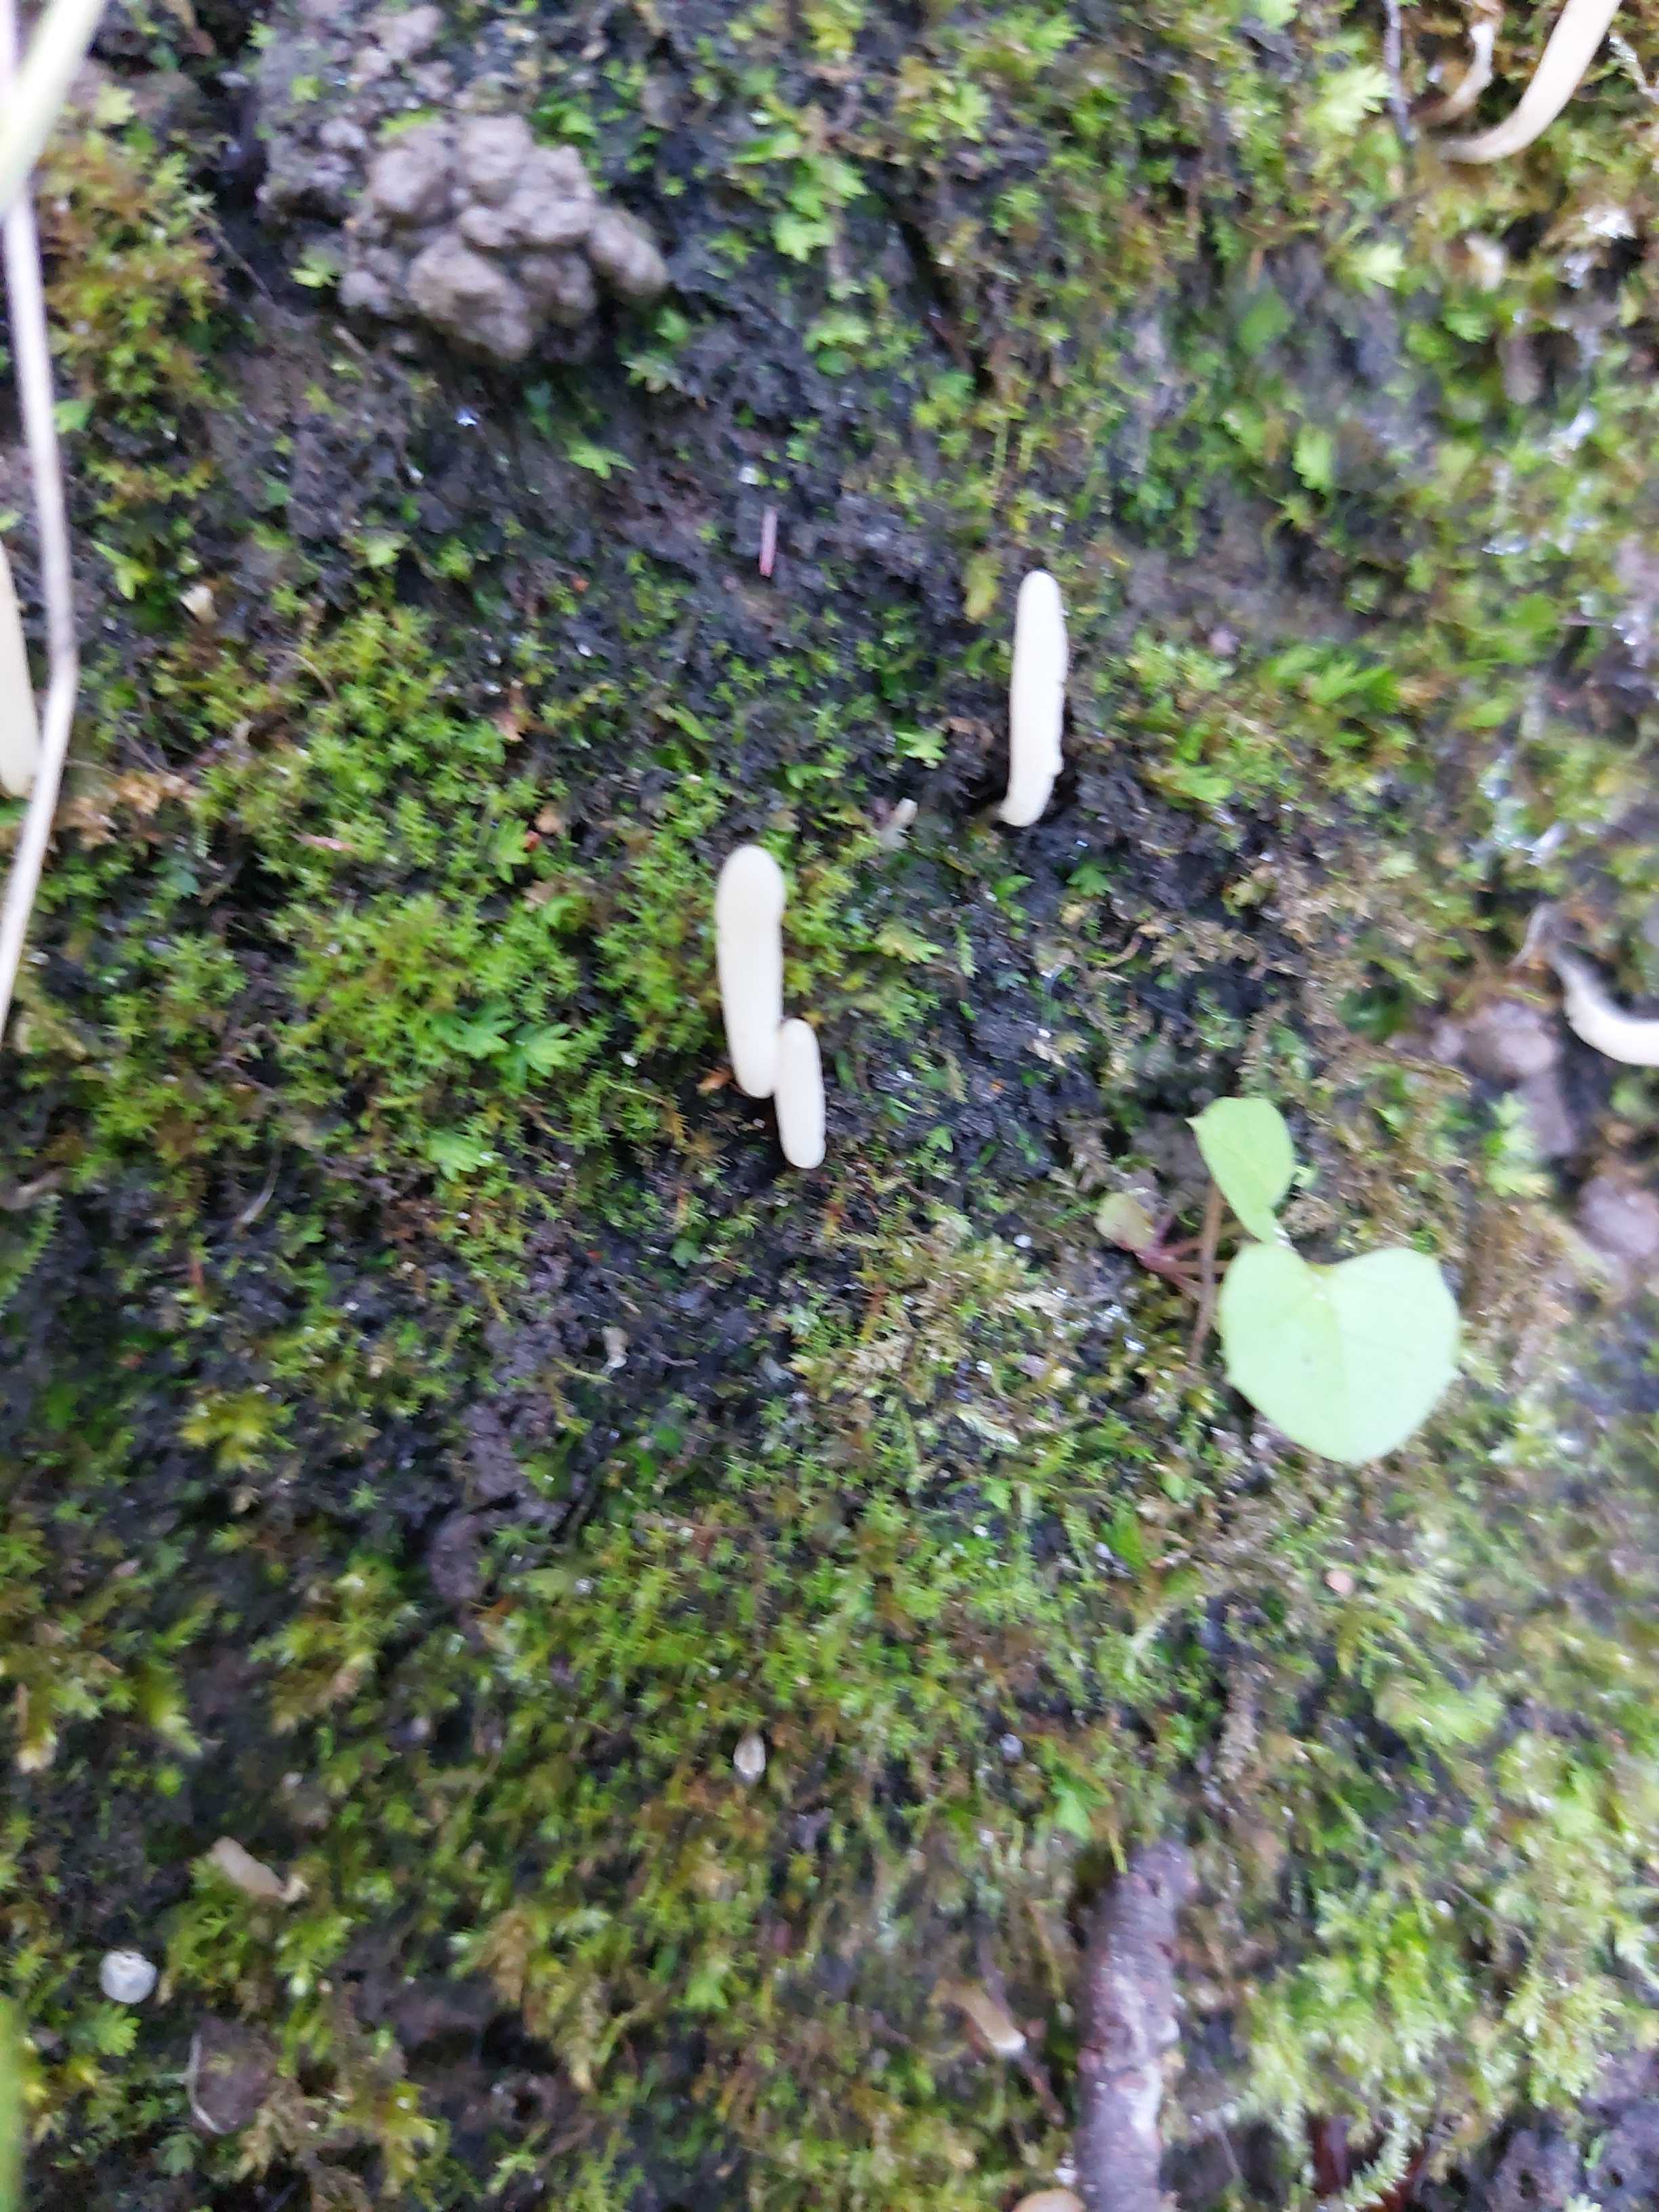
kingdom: Fungi
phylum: Basidiomycota
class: Agaricomycetes
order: Agaricales
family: Clavariaceae
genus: Clavaria
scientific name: Clavaria falcata
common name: hvid køllesvamp
